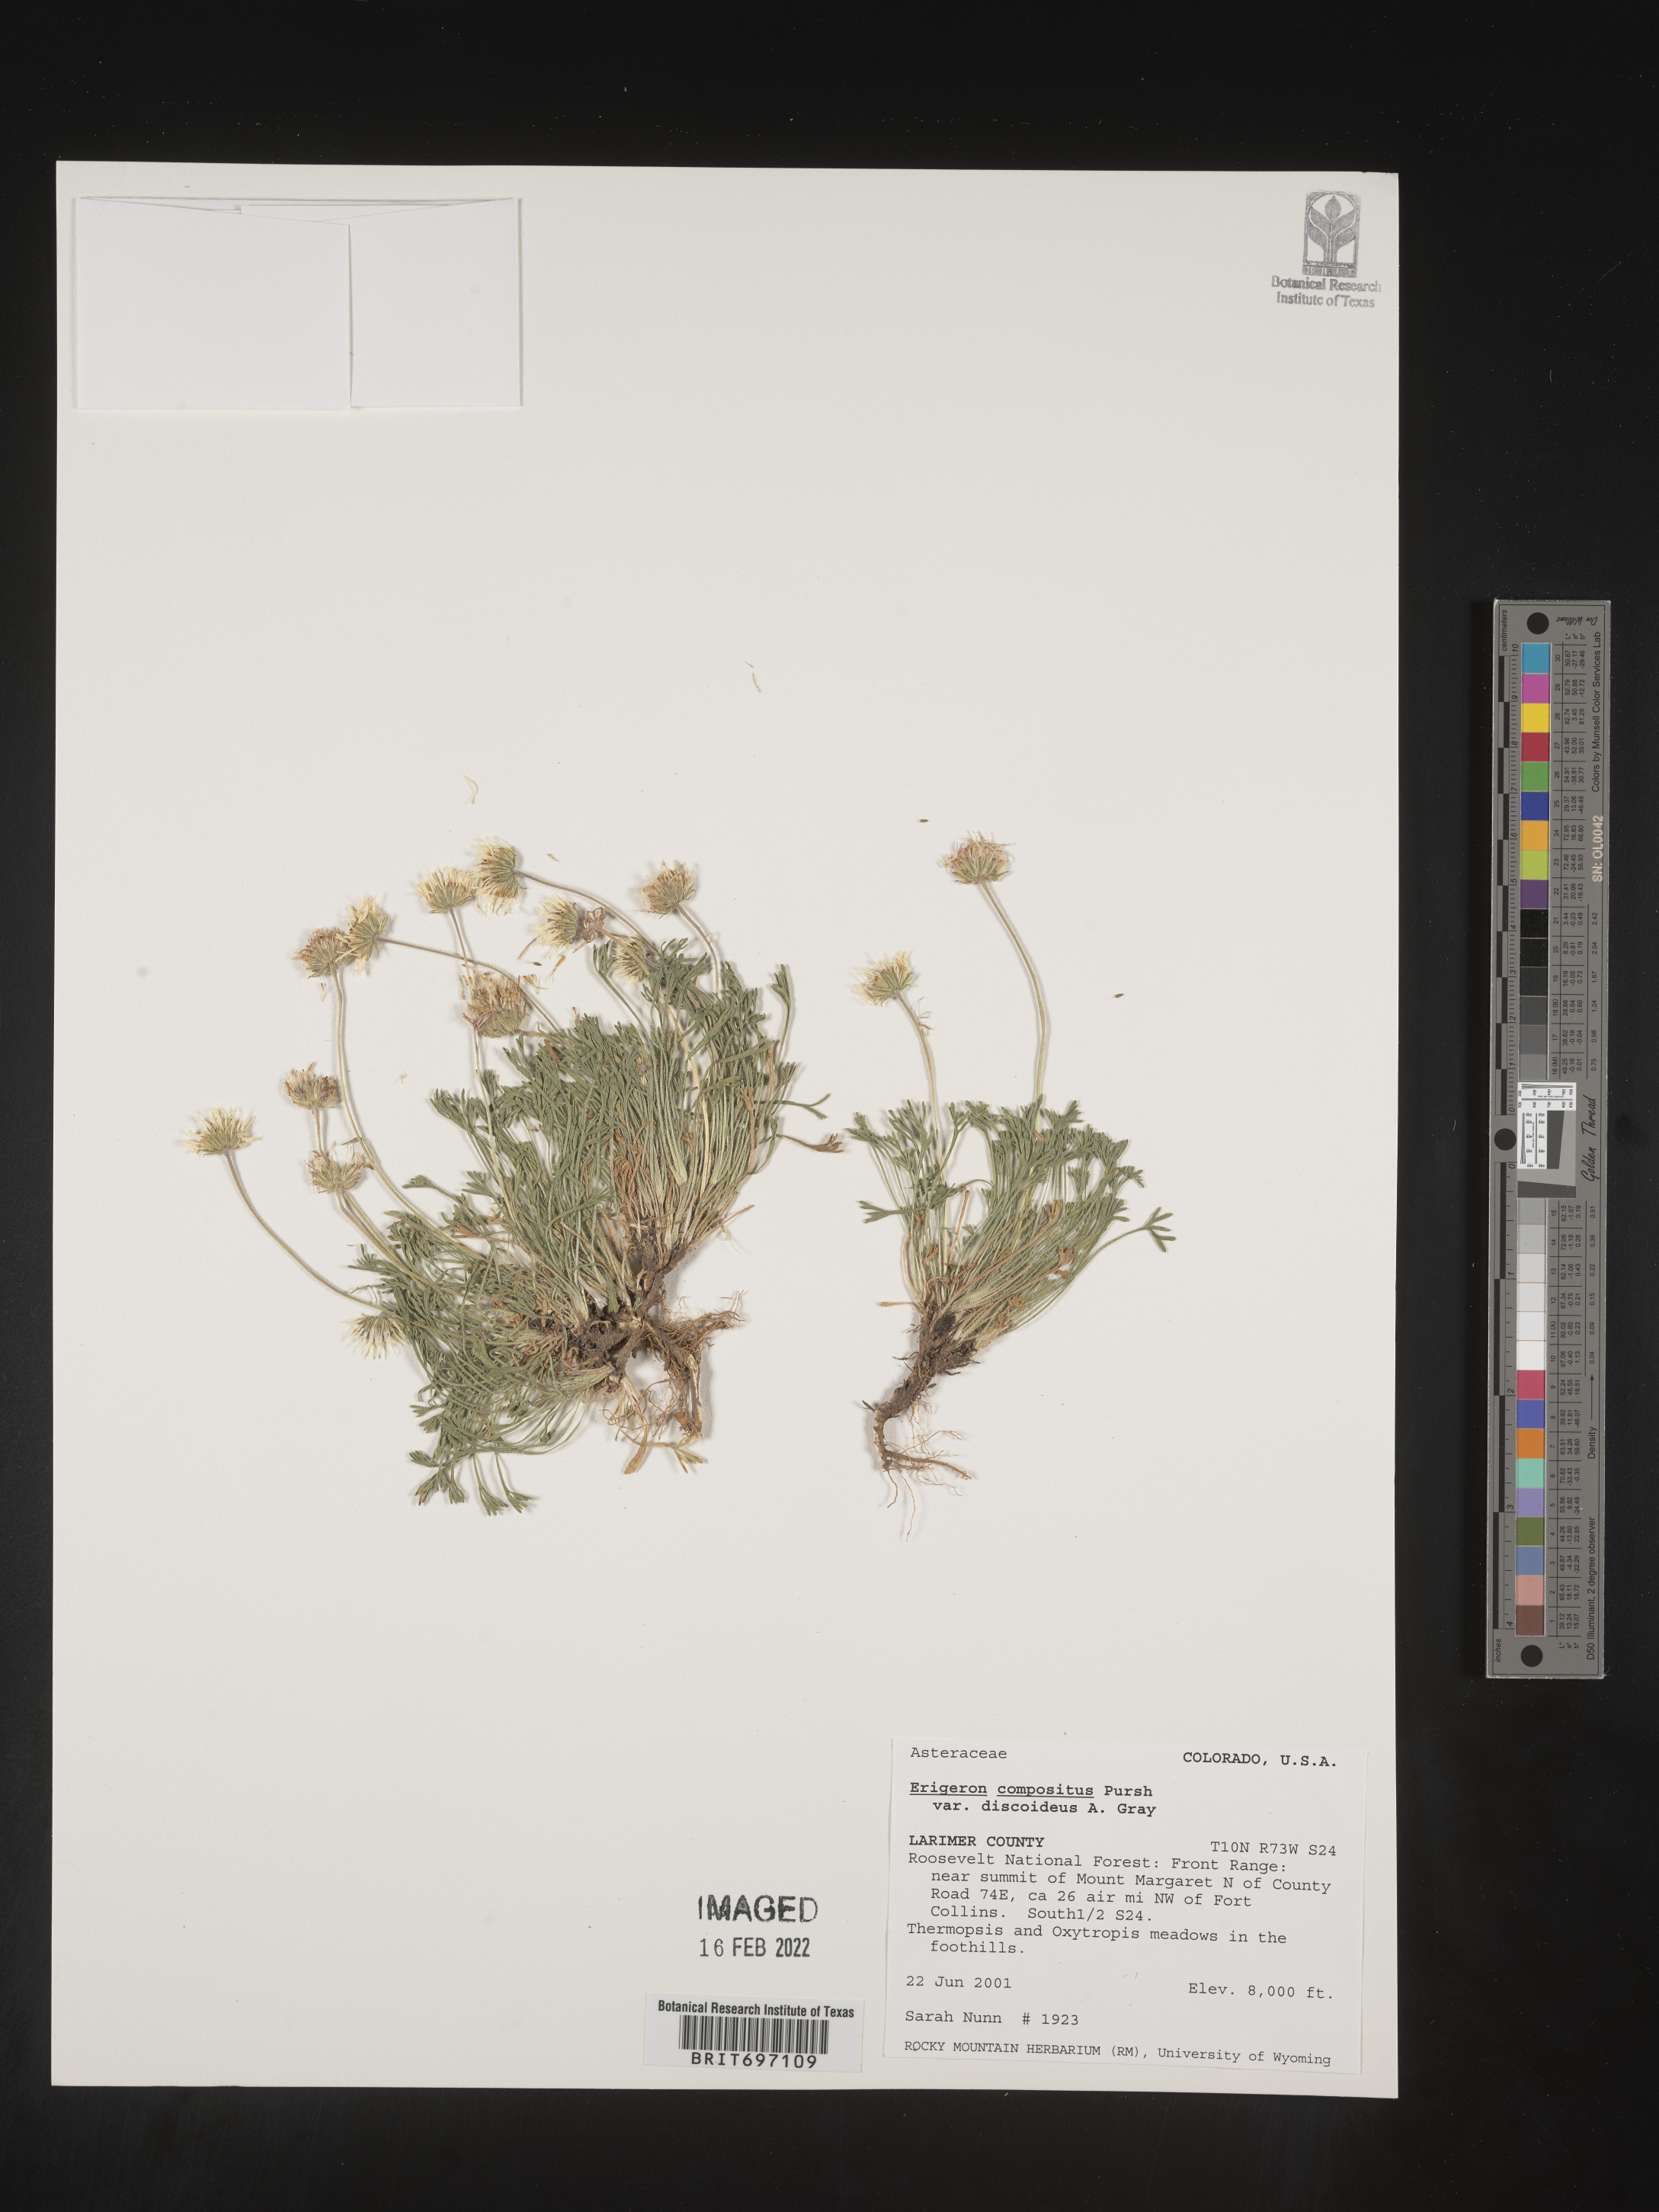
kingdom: Plantae
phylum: Tracheophyta
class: Magnoliopsida
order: Asterales
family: Asteraceae
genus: Erigeron
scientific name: Erigeron compositus
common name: Dwarf mountain fleabane
